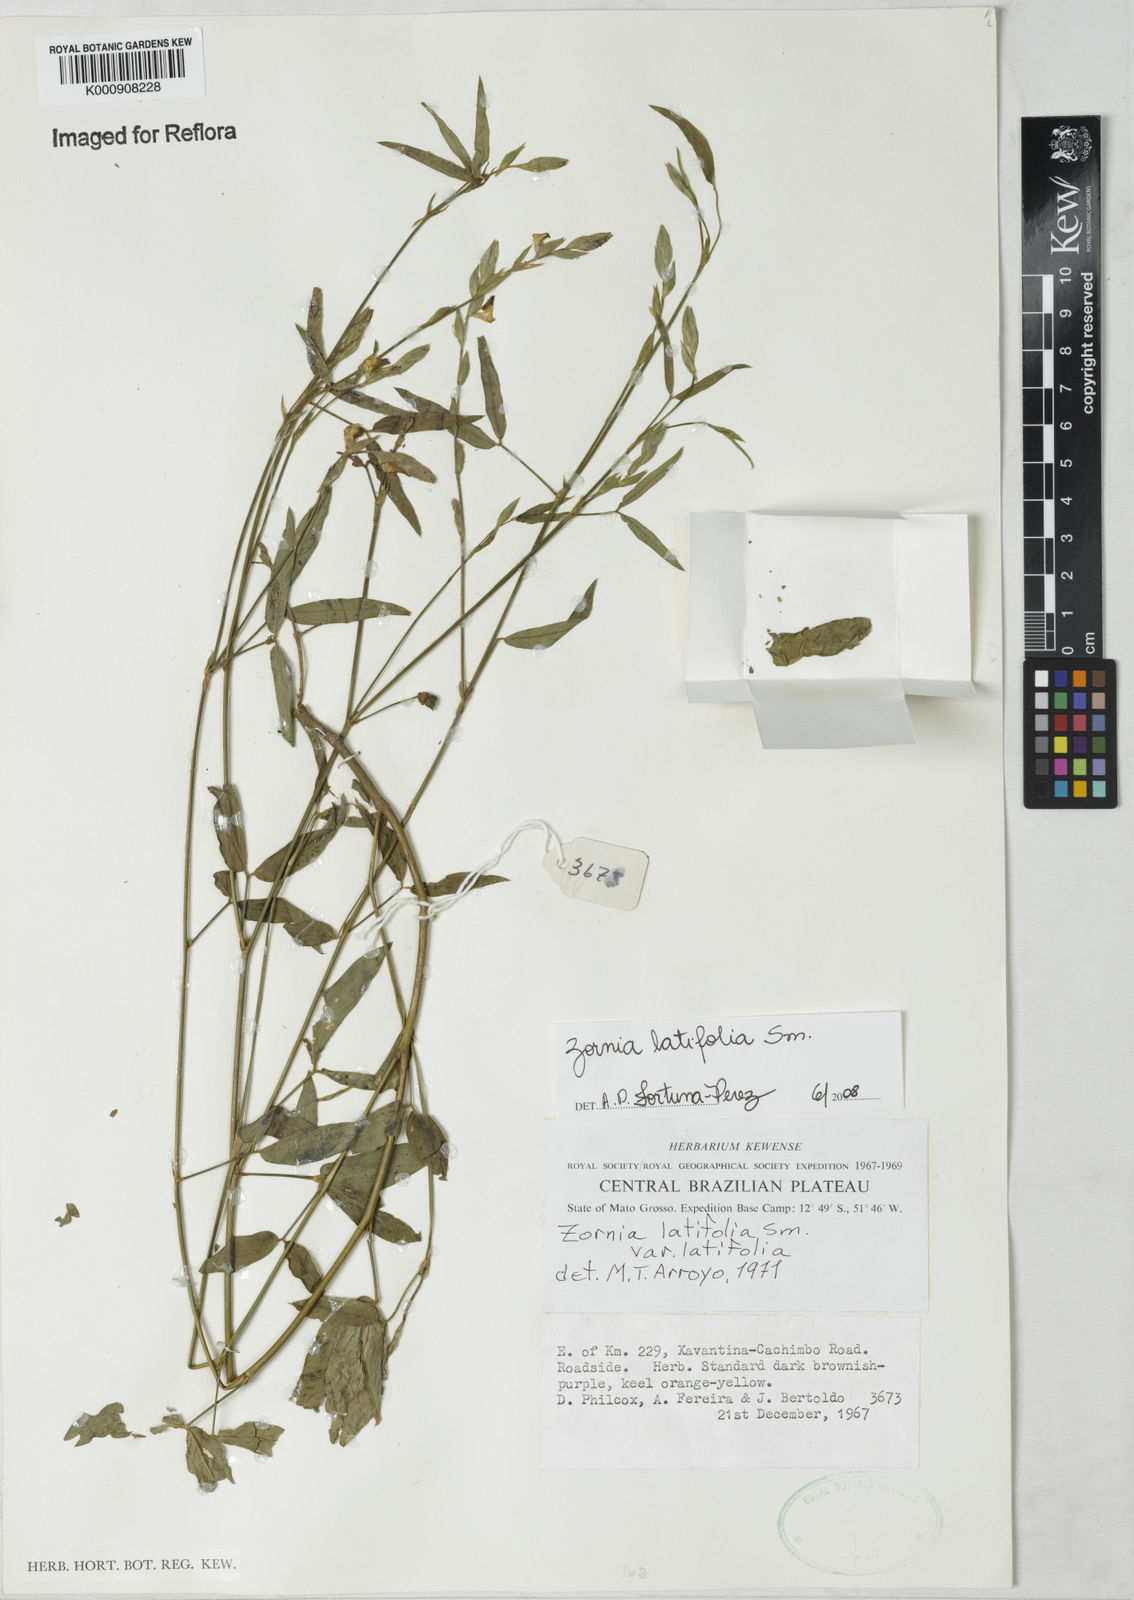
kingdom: Plantae
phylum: Tracheophyta
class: Magnoliopsida
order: Fabales
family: Fabaceae
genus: Zornia
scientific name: Zornia latifolia
